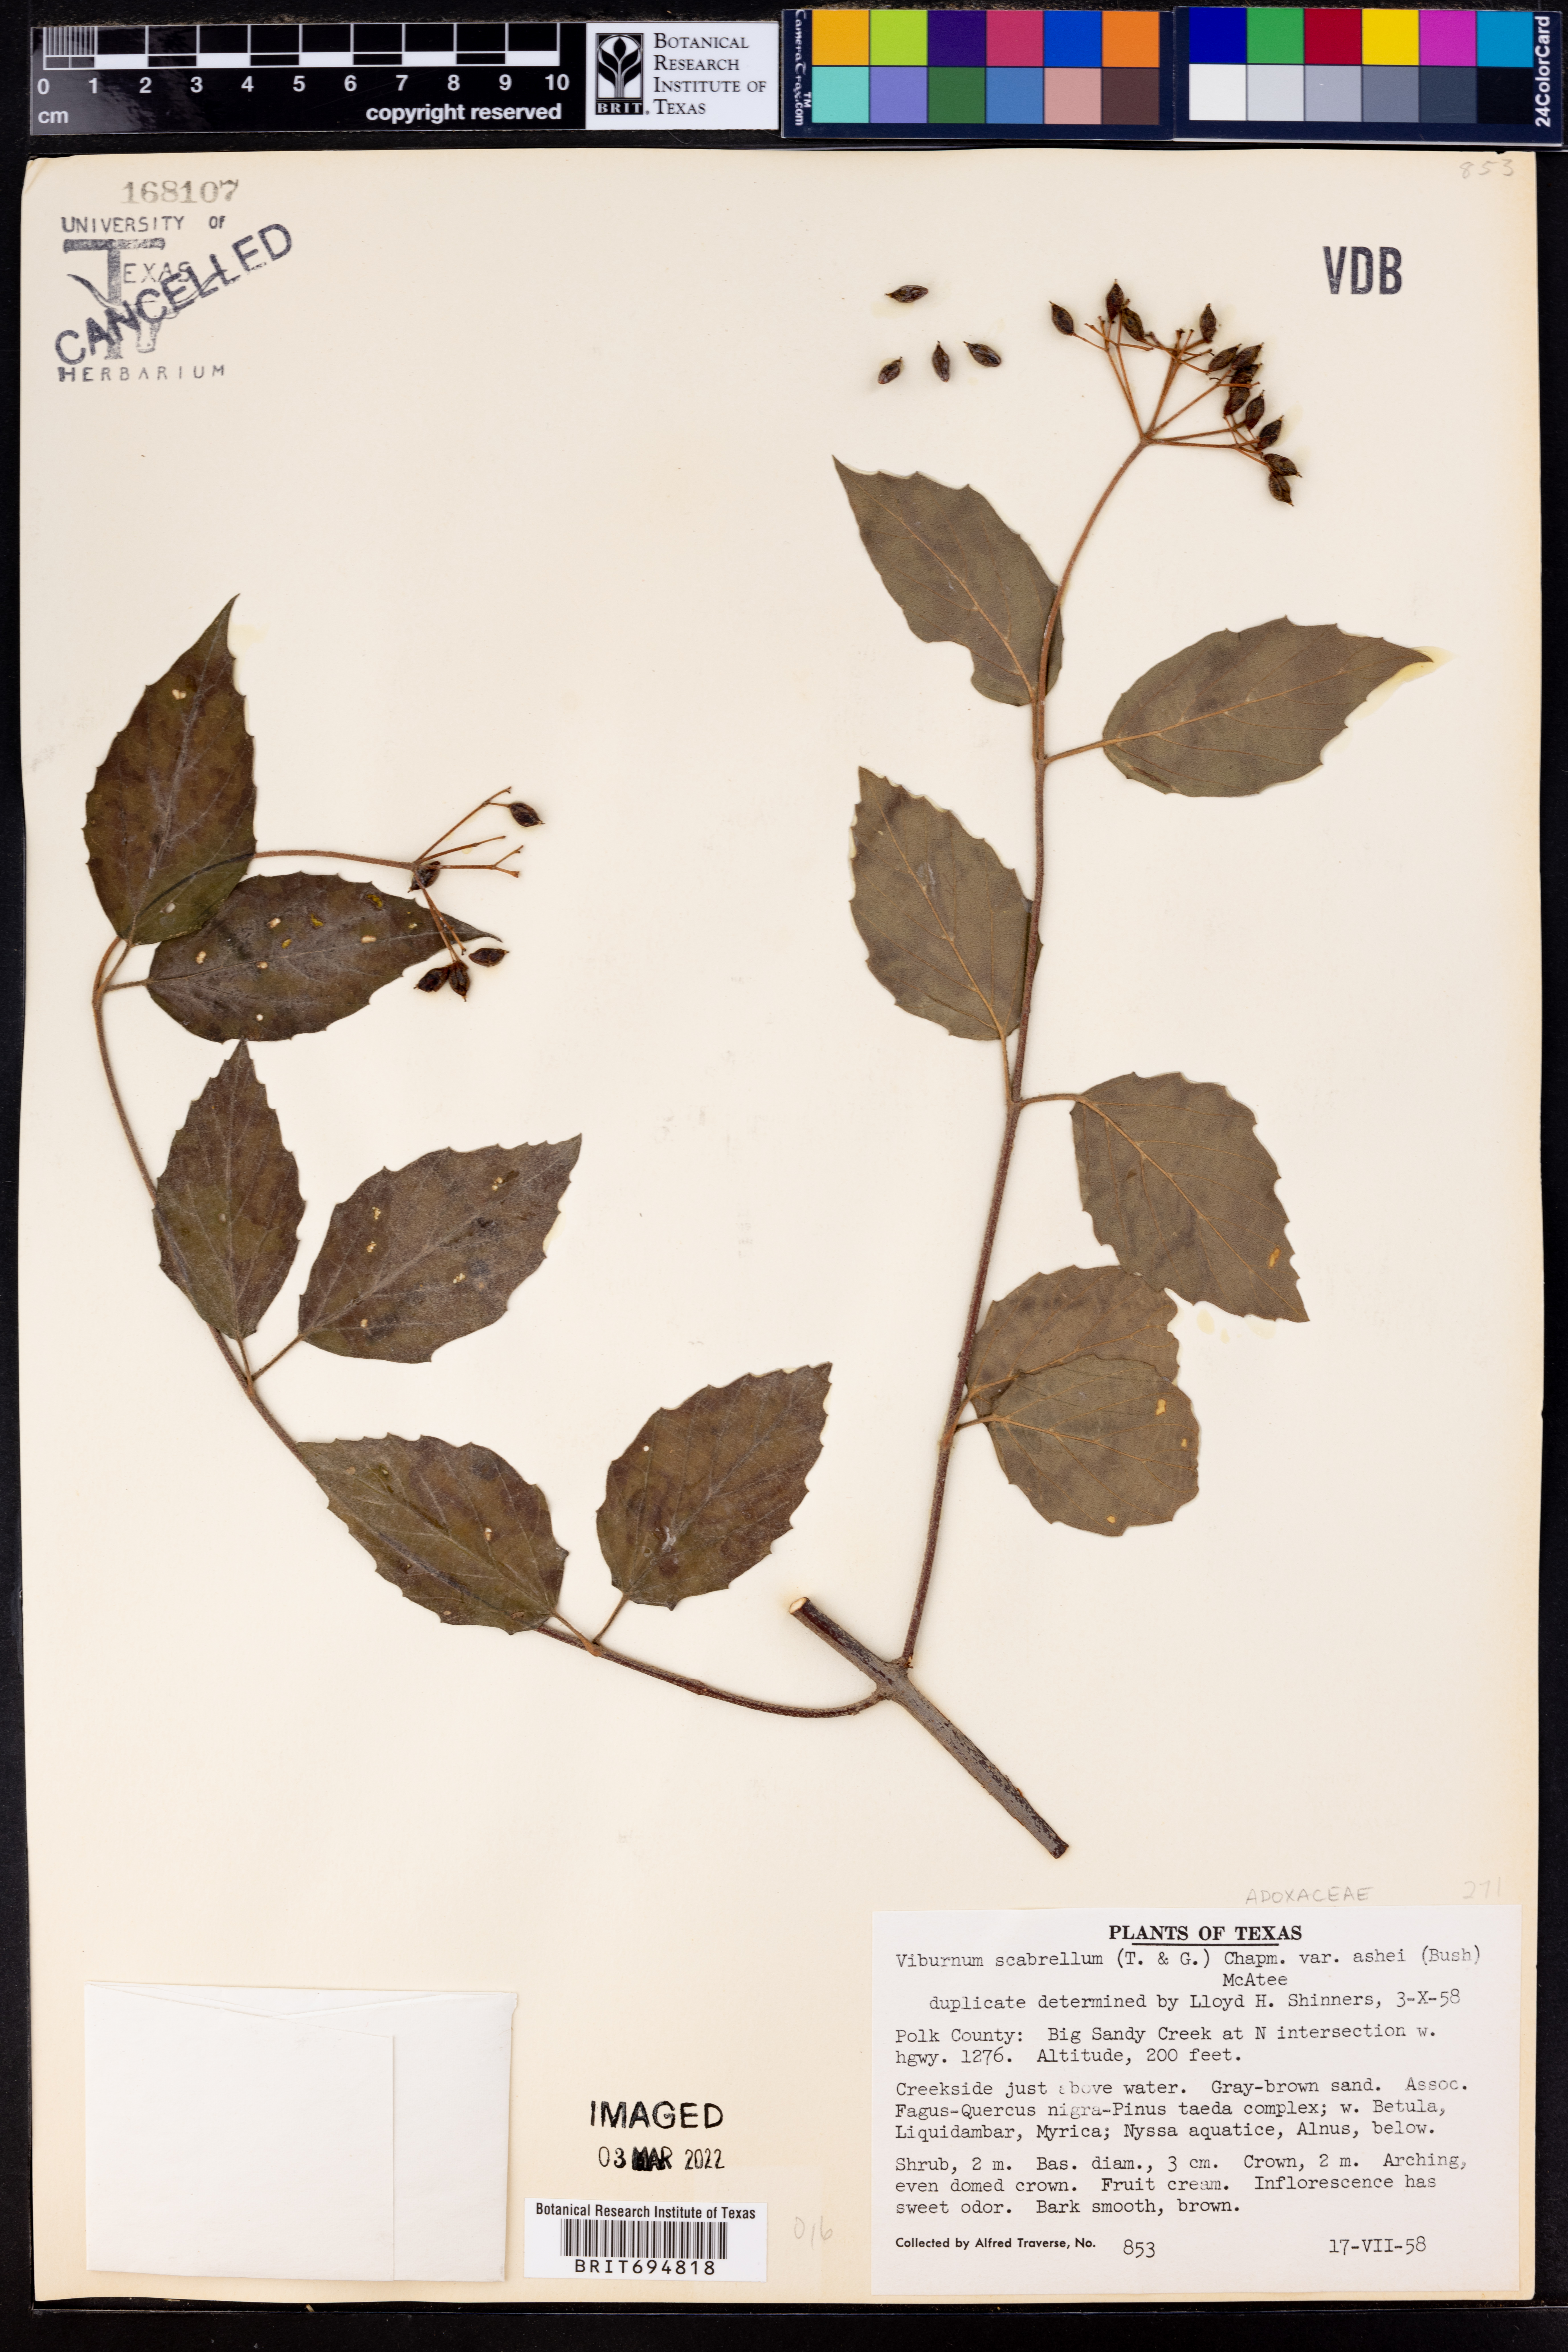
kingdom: Plantae
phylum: Tracheophyta
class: Magnoliopsida
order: Dipsacales
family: Viburnaceae
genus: Viburnum
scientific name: Viburnum scabrellum
